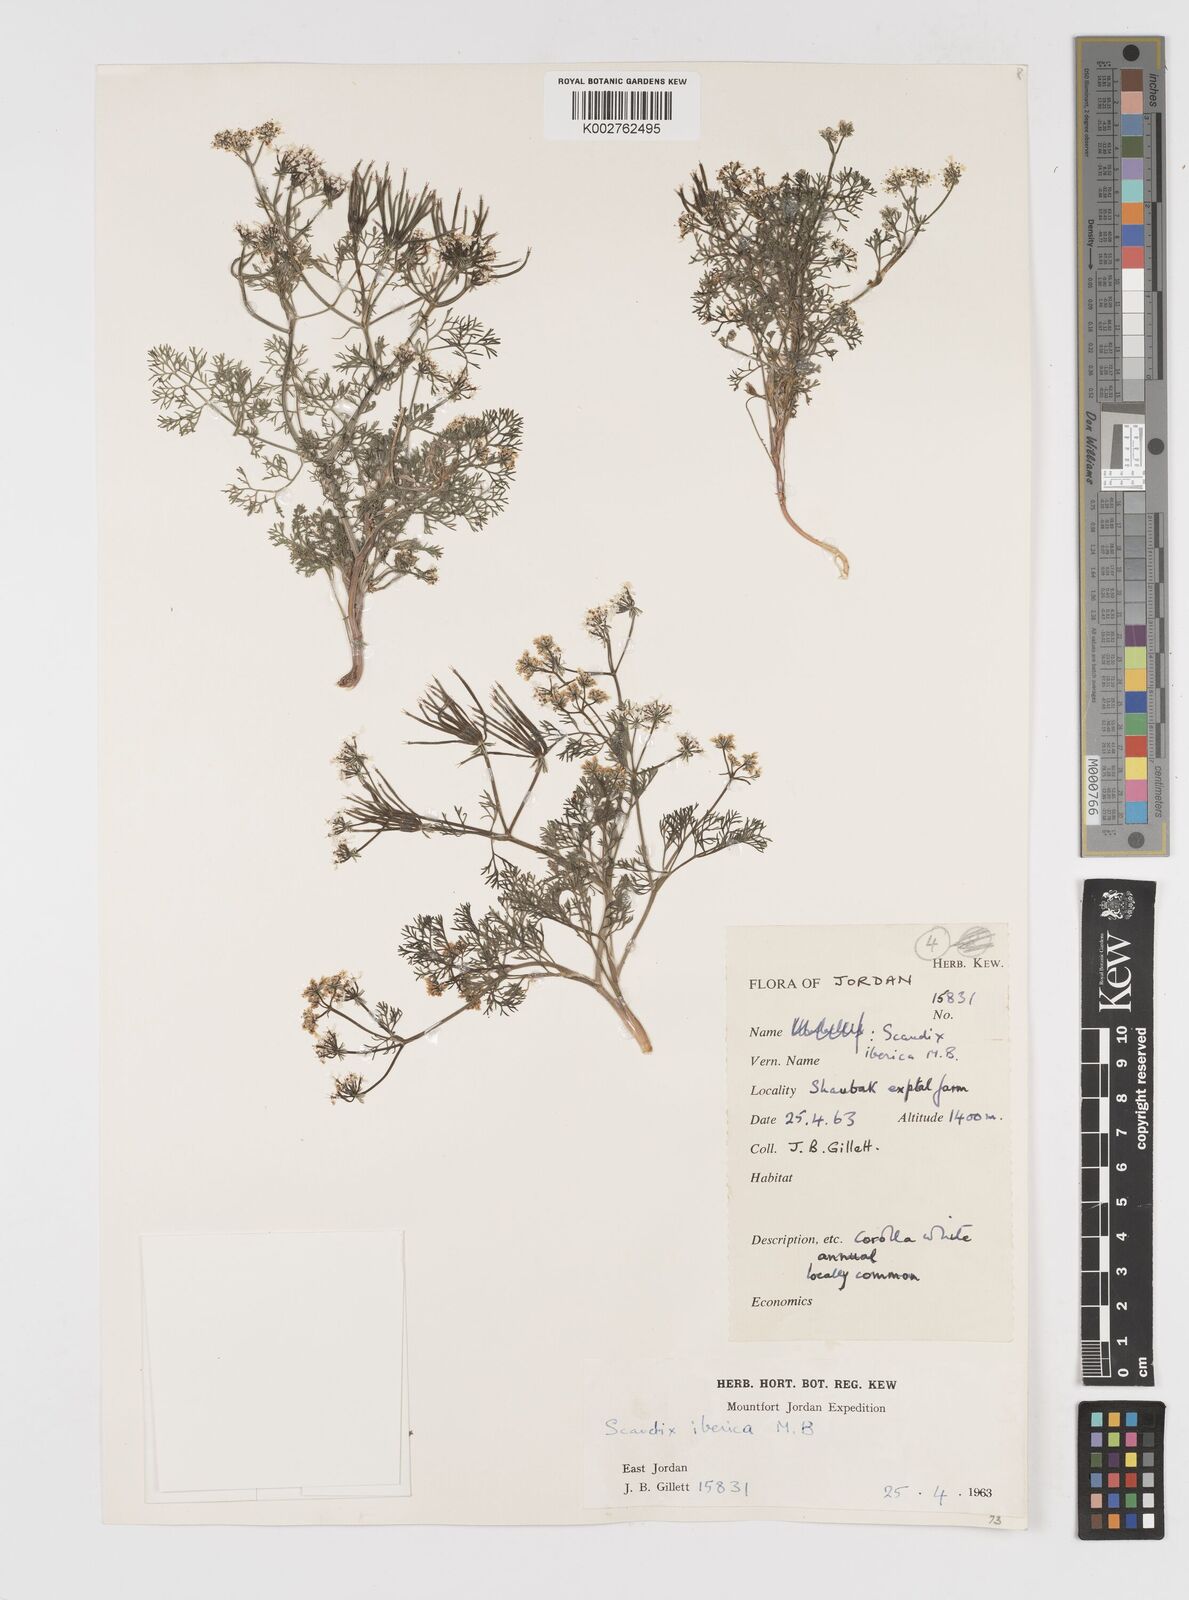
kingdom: Plantae
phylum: Tracheophyta
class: Magnoliopsida
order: Apiales
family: Apiaceae
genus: Scandix
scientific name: Scandix iberica
